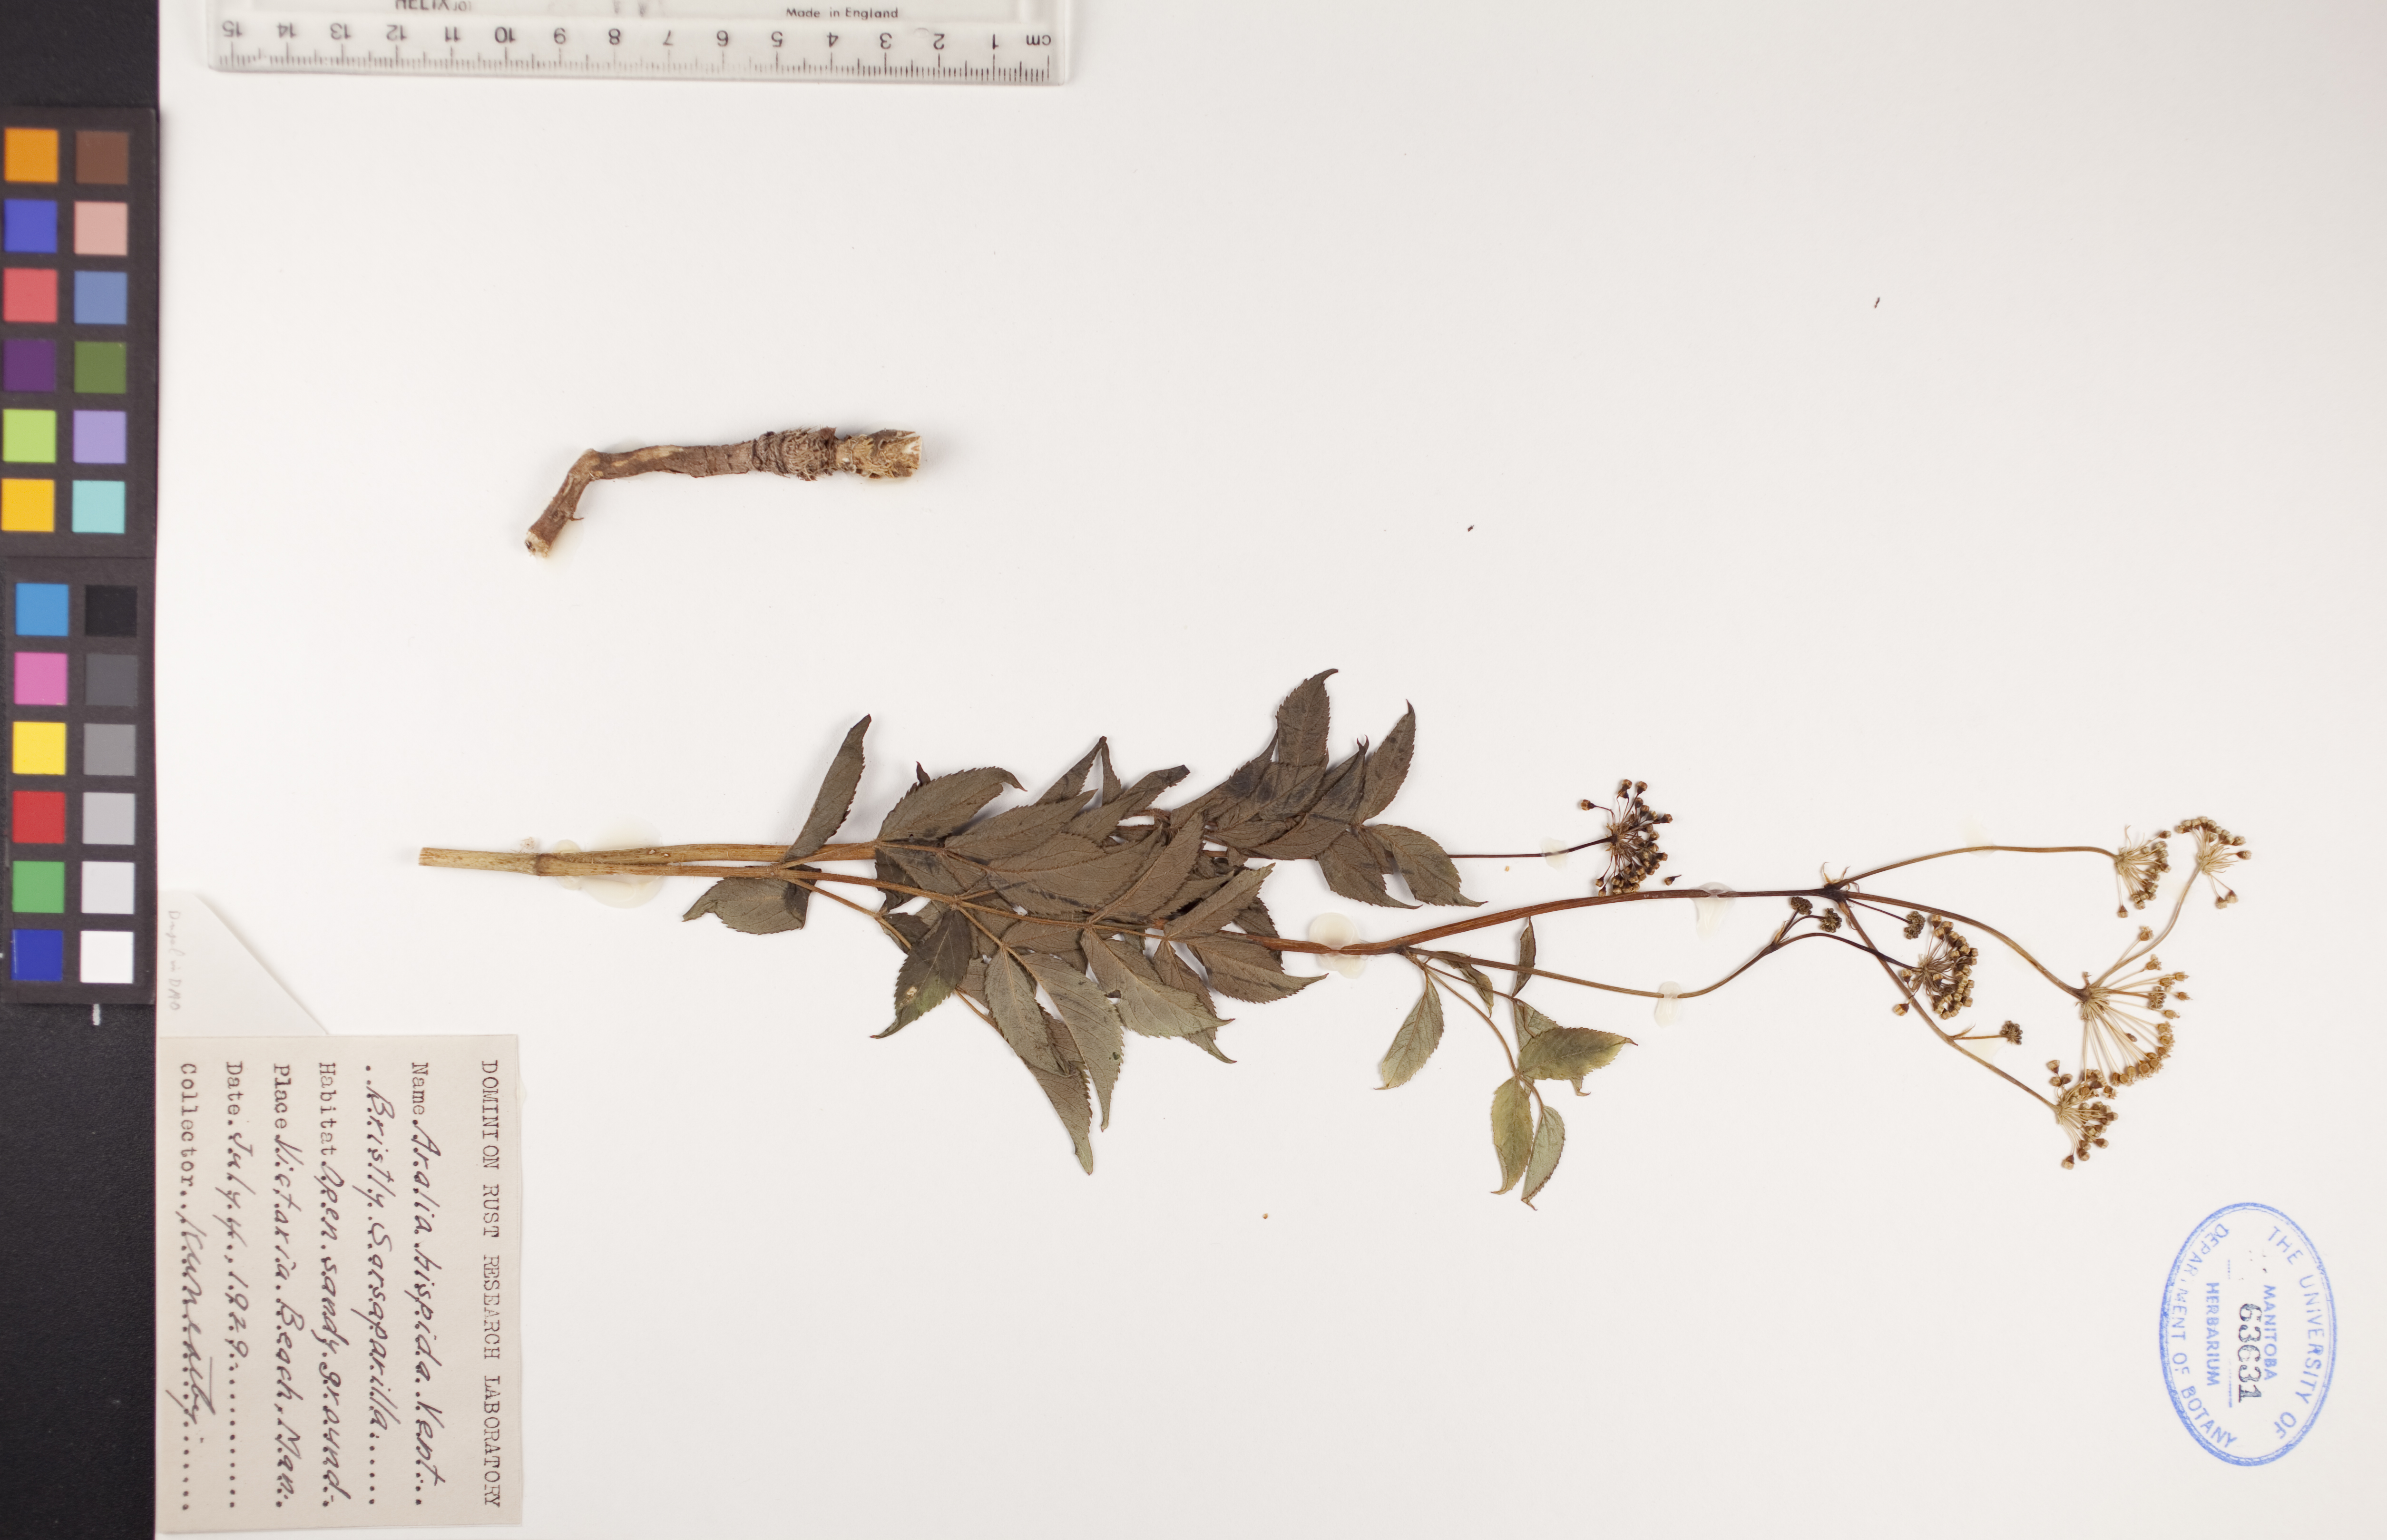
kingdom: Plantae
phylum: Tracheophyta
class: Magnoliopsida
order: Apiales
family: Araliaceae
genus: Aralia
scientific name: Aralia hispida
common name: Bristly sarsaparilla
